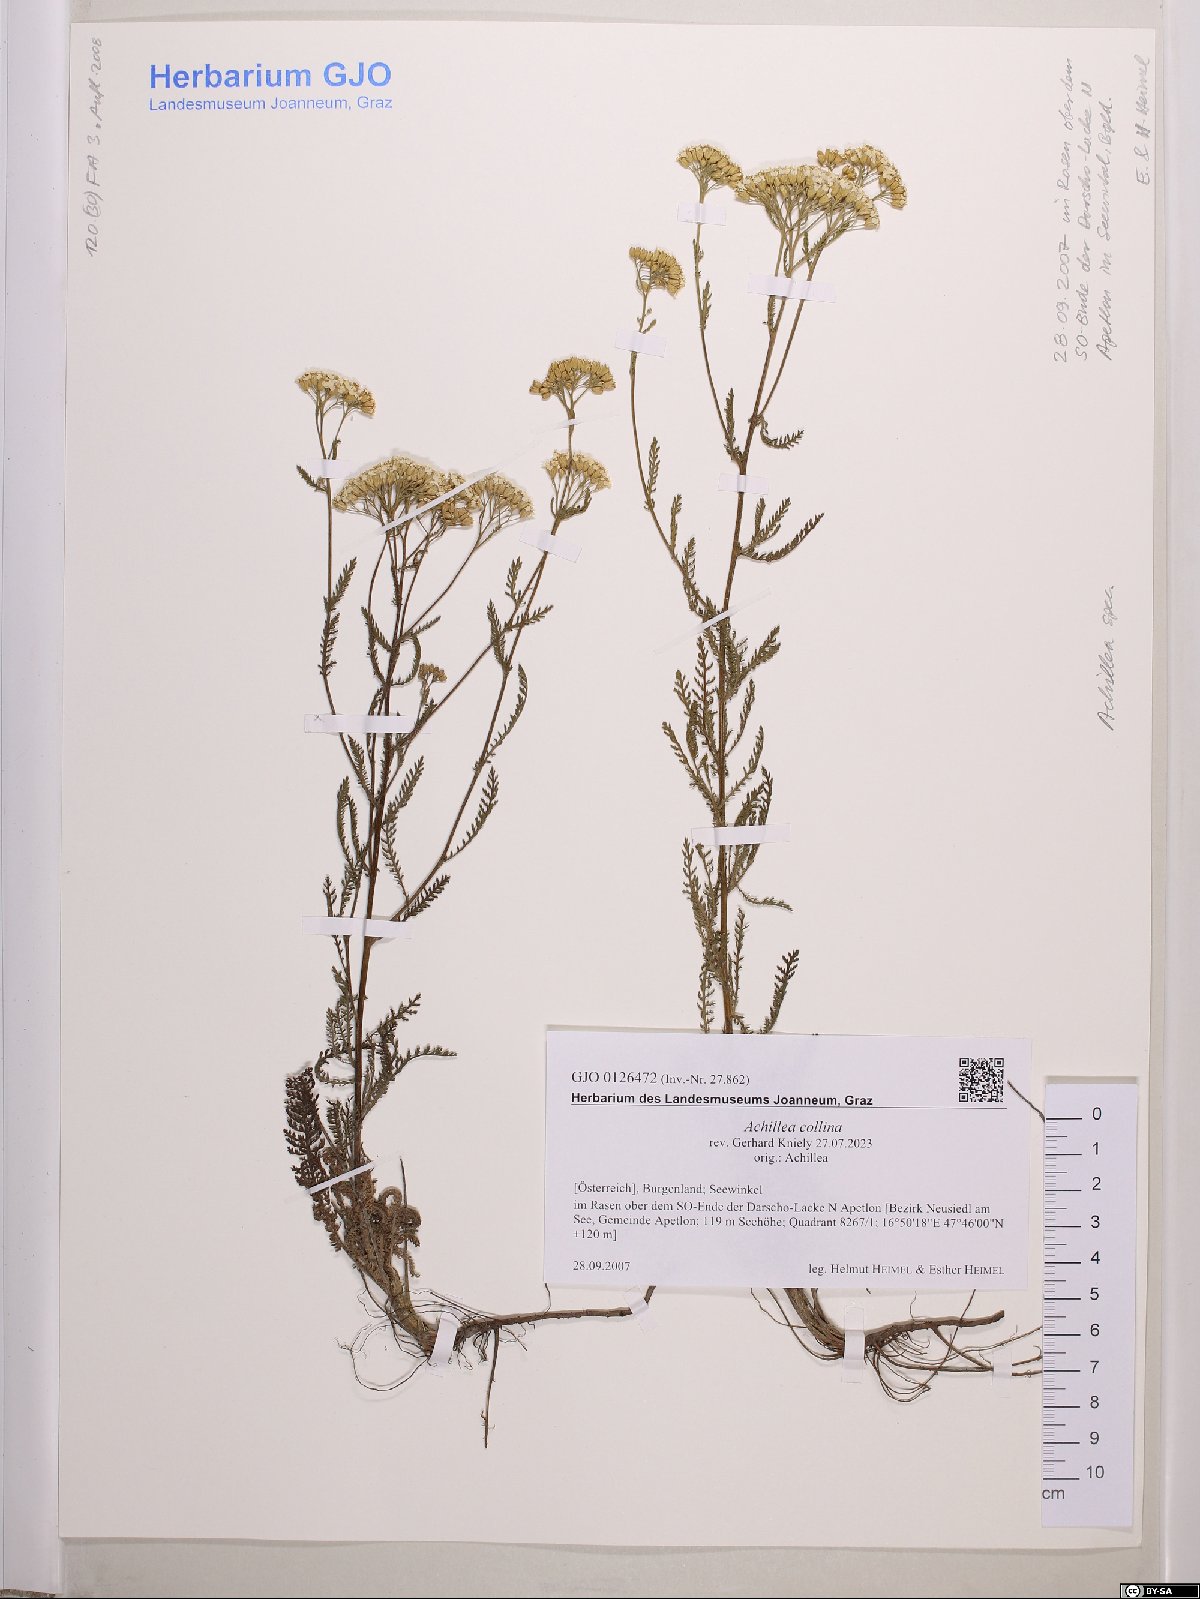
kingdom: Plantae
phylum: Tracheophyta
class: Magnoliopsida
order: Asterales
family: Asteraceae
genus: Achillea
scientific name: Achillea collina
